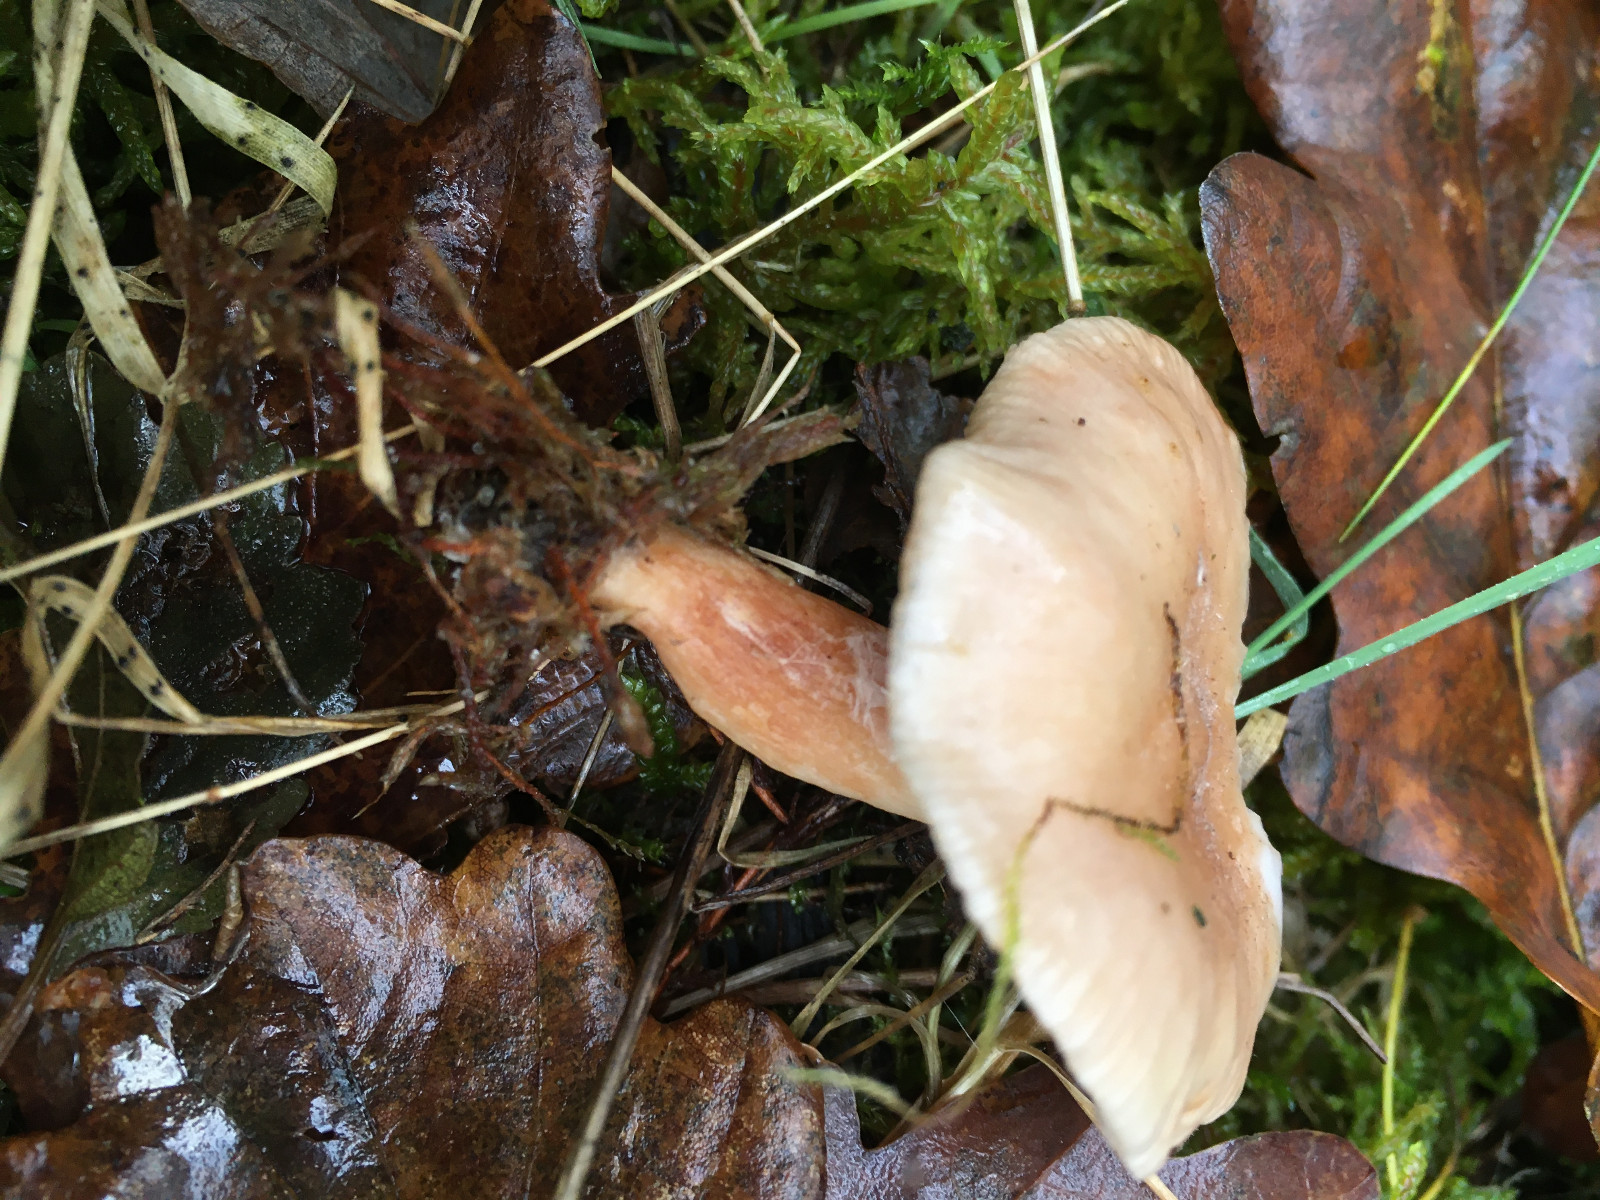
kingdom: Fungi
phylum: Basidiomycota
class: Agaricomycetes
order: Russulales
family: Russulaceae
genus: Lactarius
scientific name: Lactarius
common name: mælkehat
